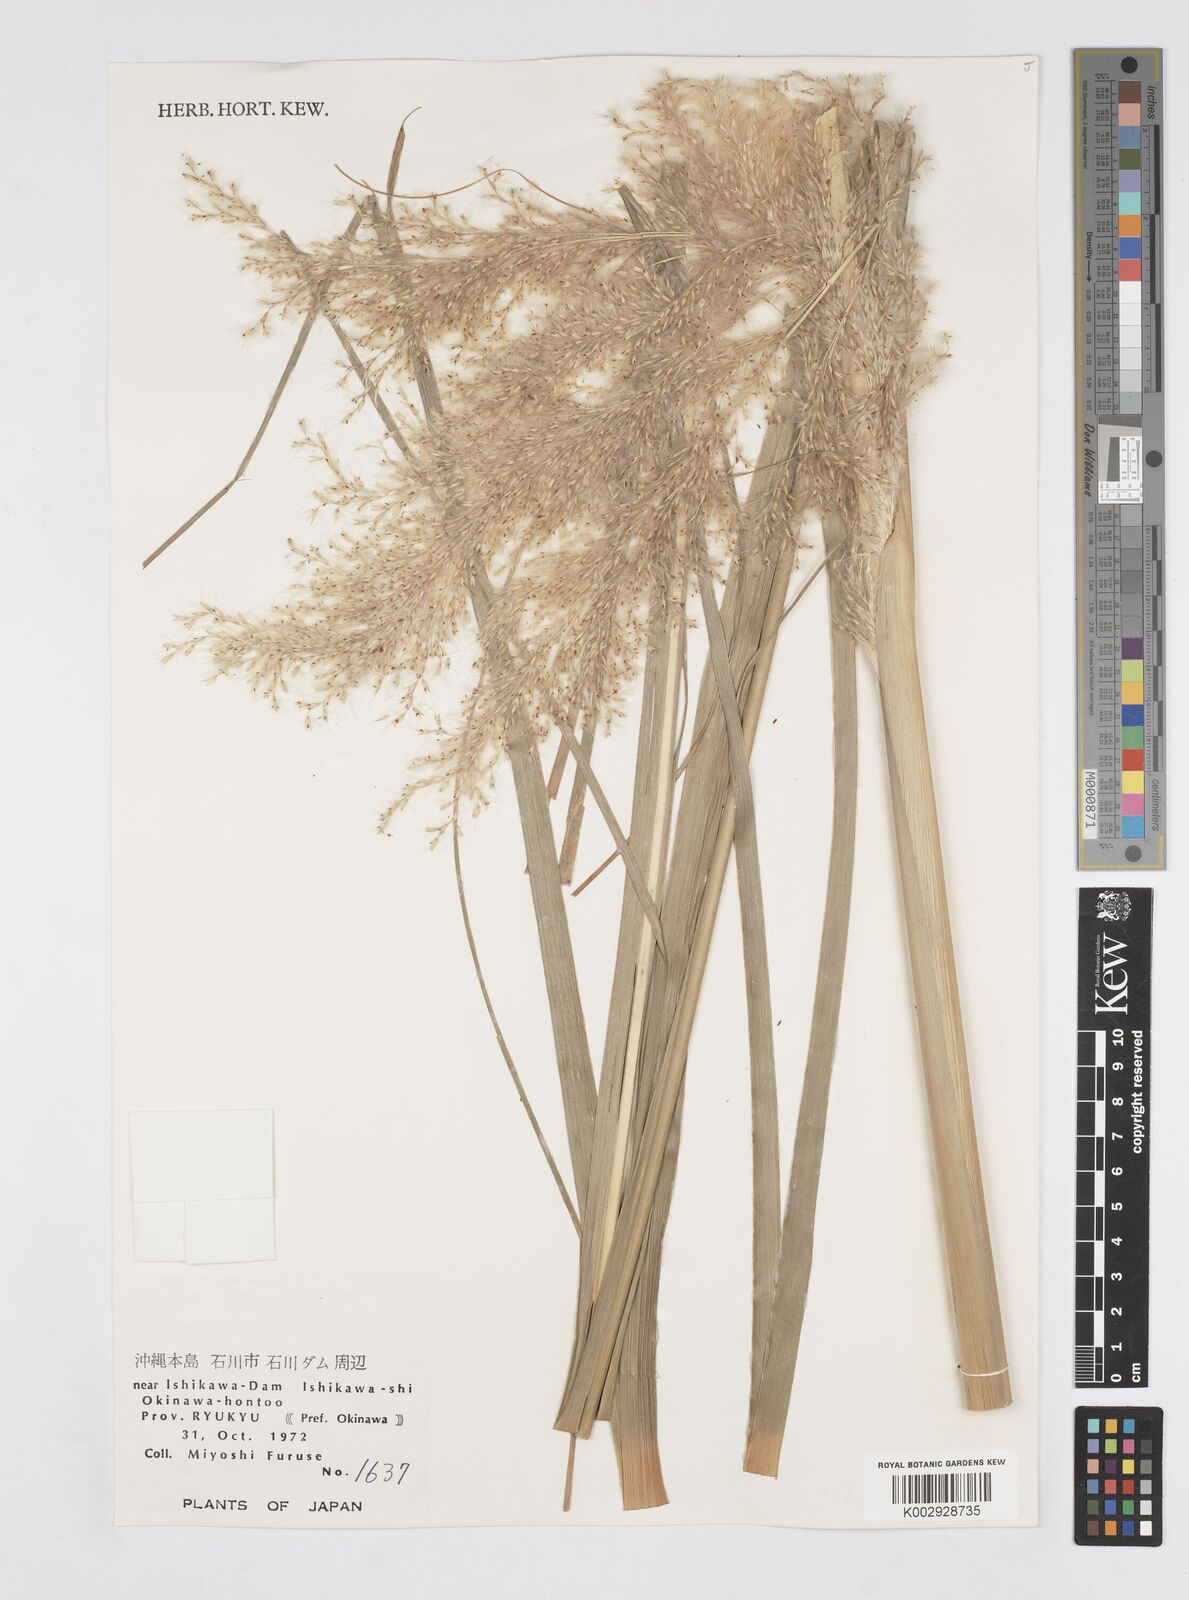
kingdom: Plantae
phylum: Tracheophyta
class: Liliopsida
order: Poales
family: Poaceae
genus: Tripidium
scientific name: Tripidium arundinaceum
